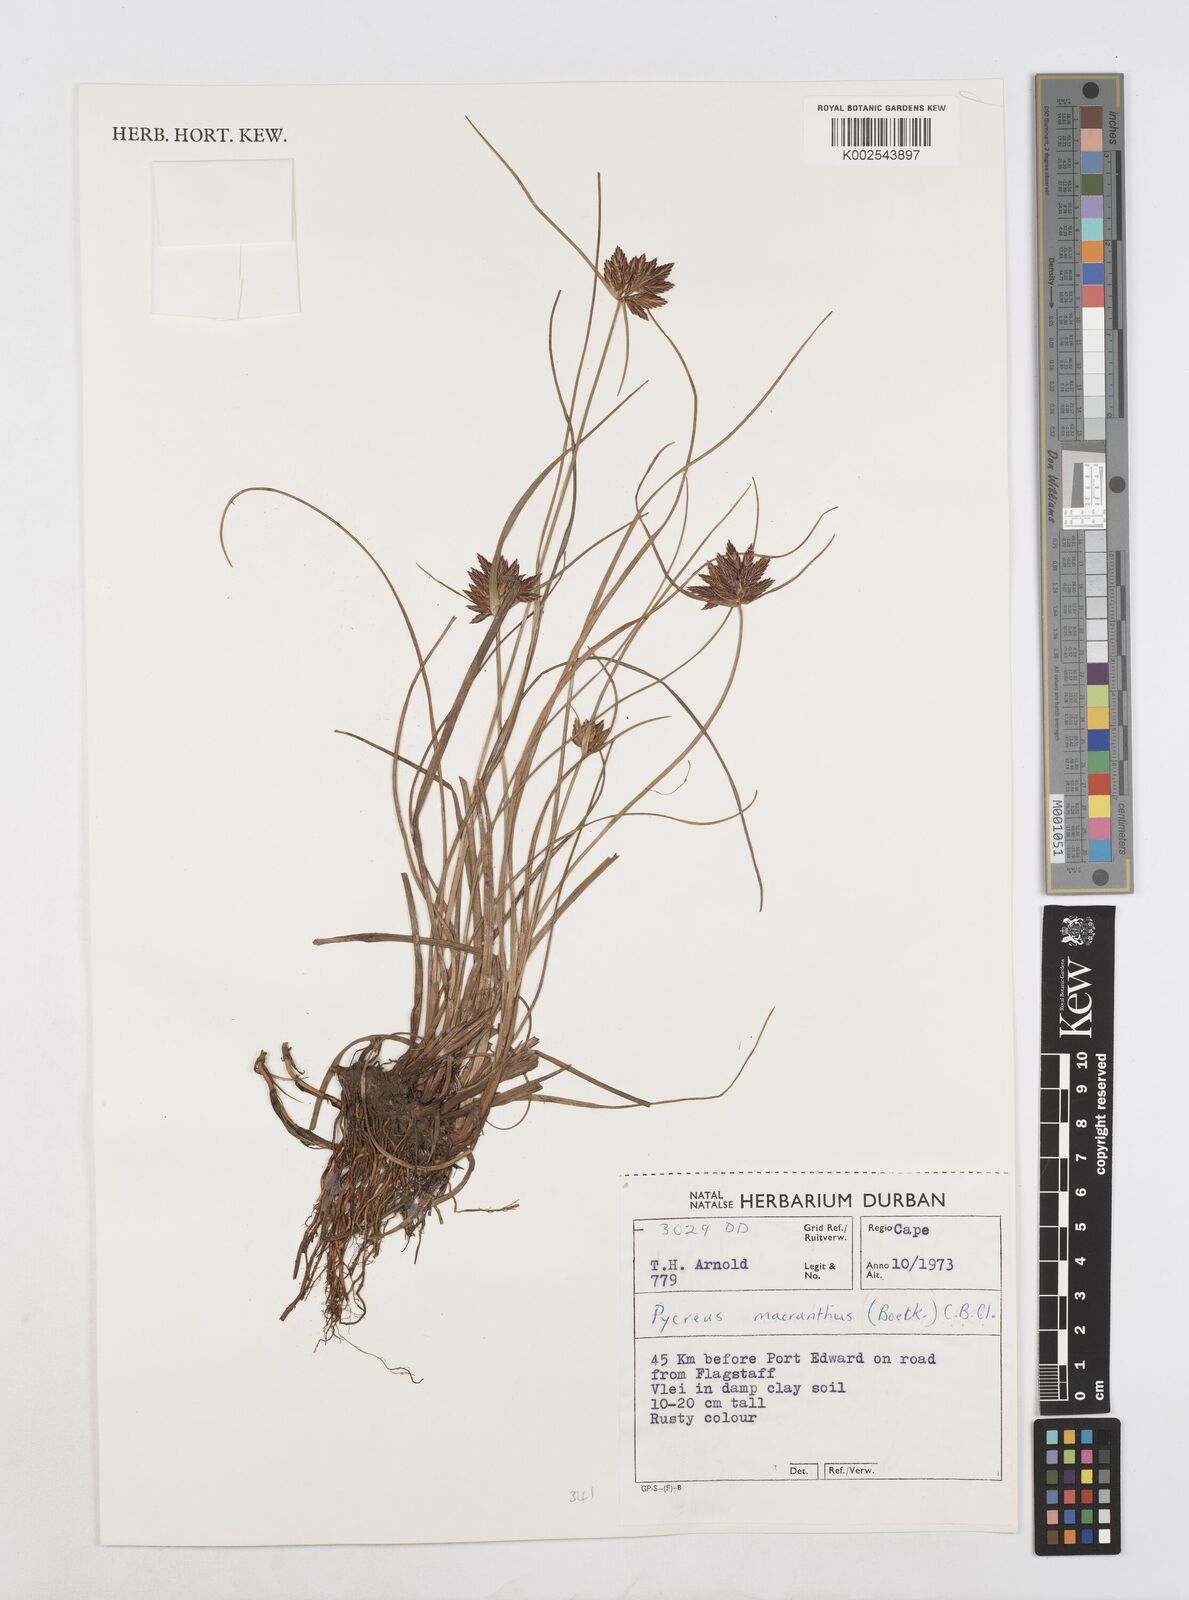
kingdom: Plantae
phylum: Tracheophyta
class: Liliopsida
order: Poales
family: Cyperaceae
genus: Cyperus
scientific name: Cyperus nigricans
